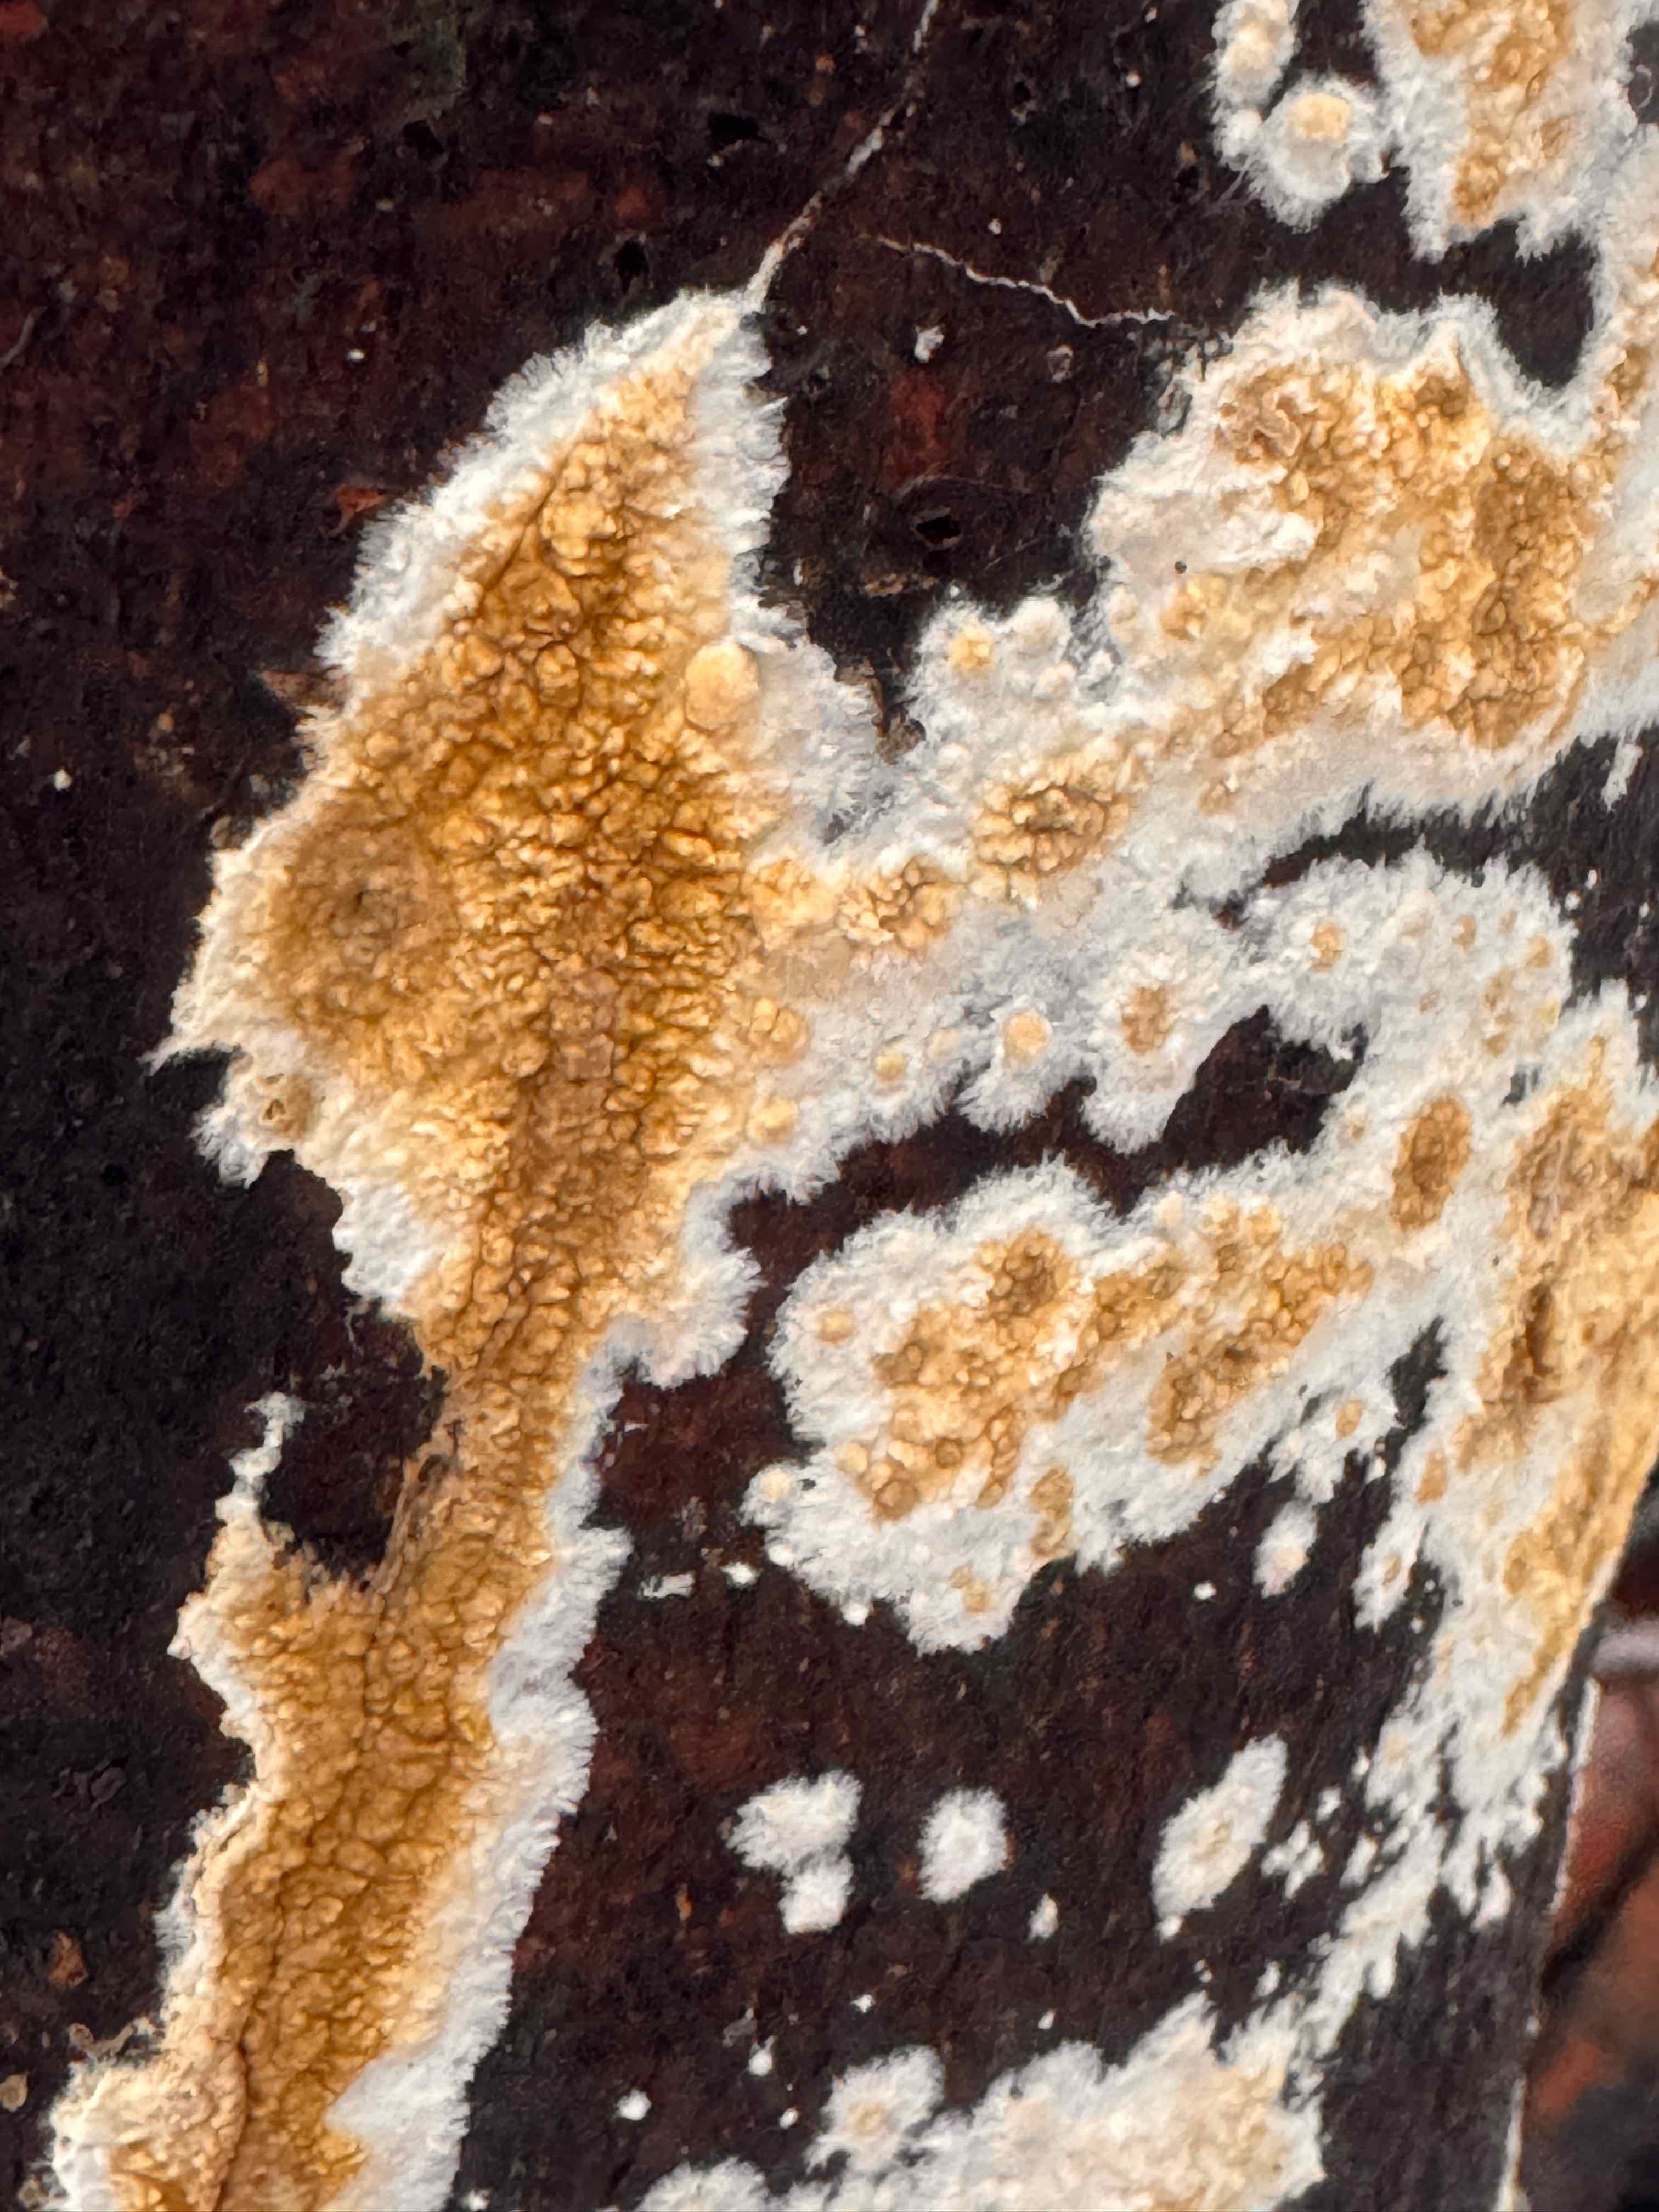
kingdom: Fungi
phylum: Basidiomycota
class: Agaricomycetes
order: Boletales
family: Coniophoraceae
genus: Coniophora
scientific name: Coniophora puteana
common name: gul tømmersvamp
